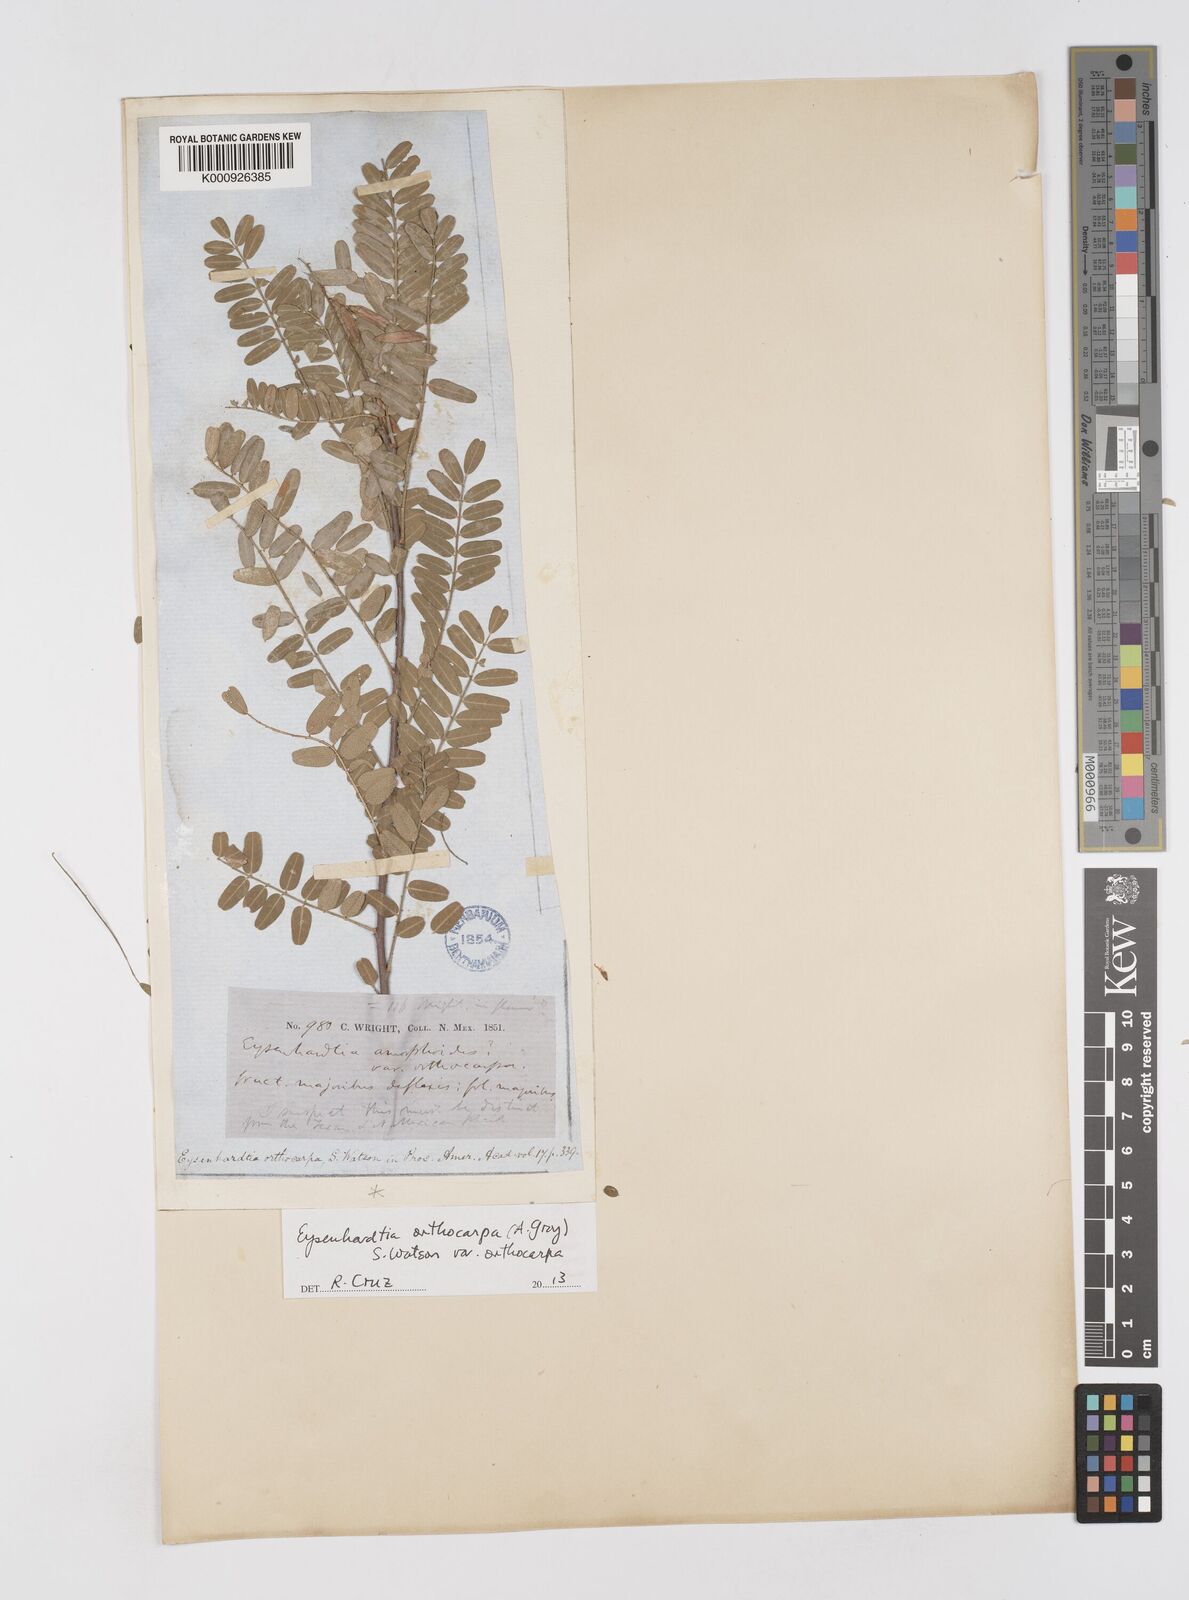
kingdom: Plantae
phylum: Tracheophyta
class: Magnoliopsida
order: Fabales
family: Fabaceae
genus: Eysenhardtia
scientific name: Eysenhardtia orthocarpa
